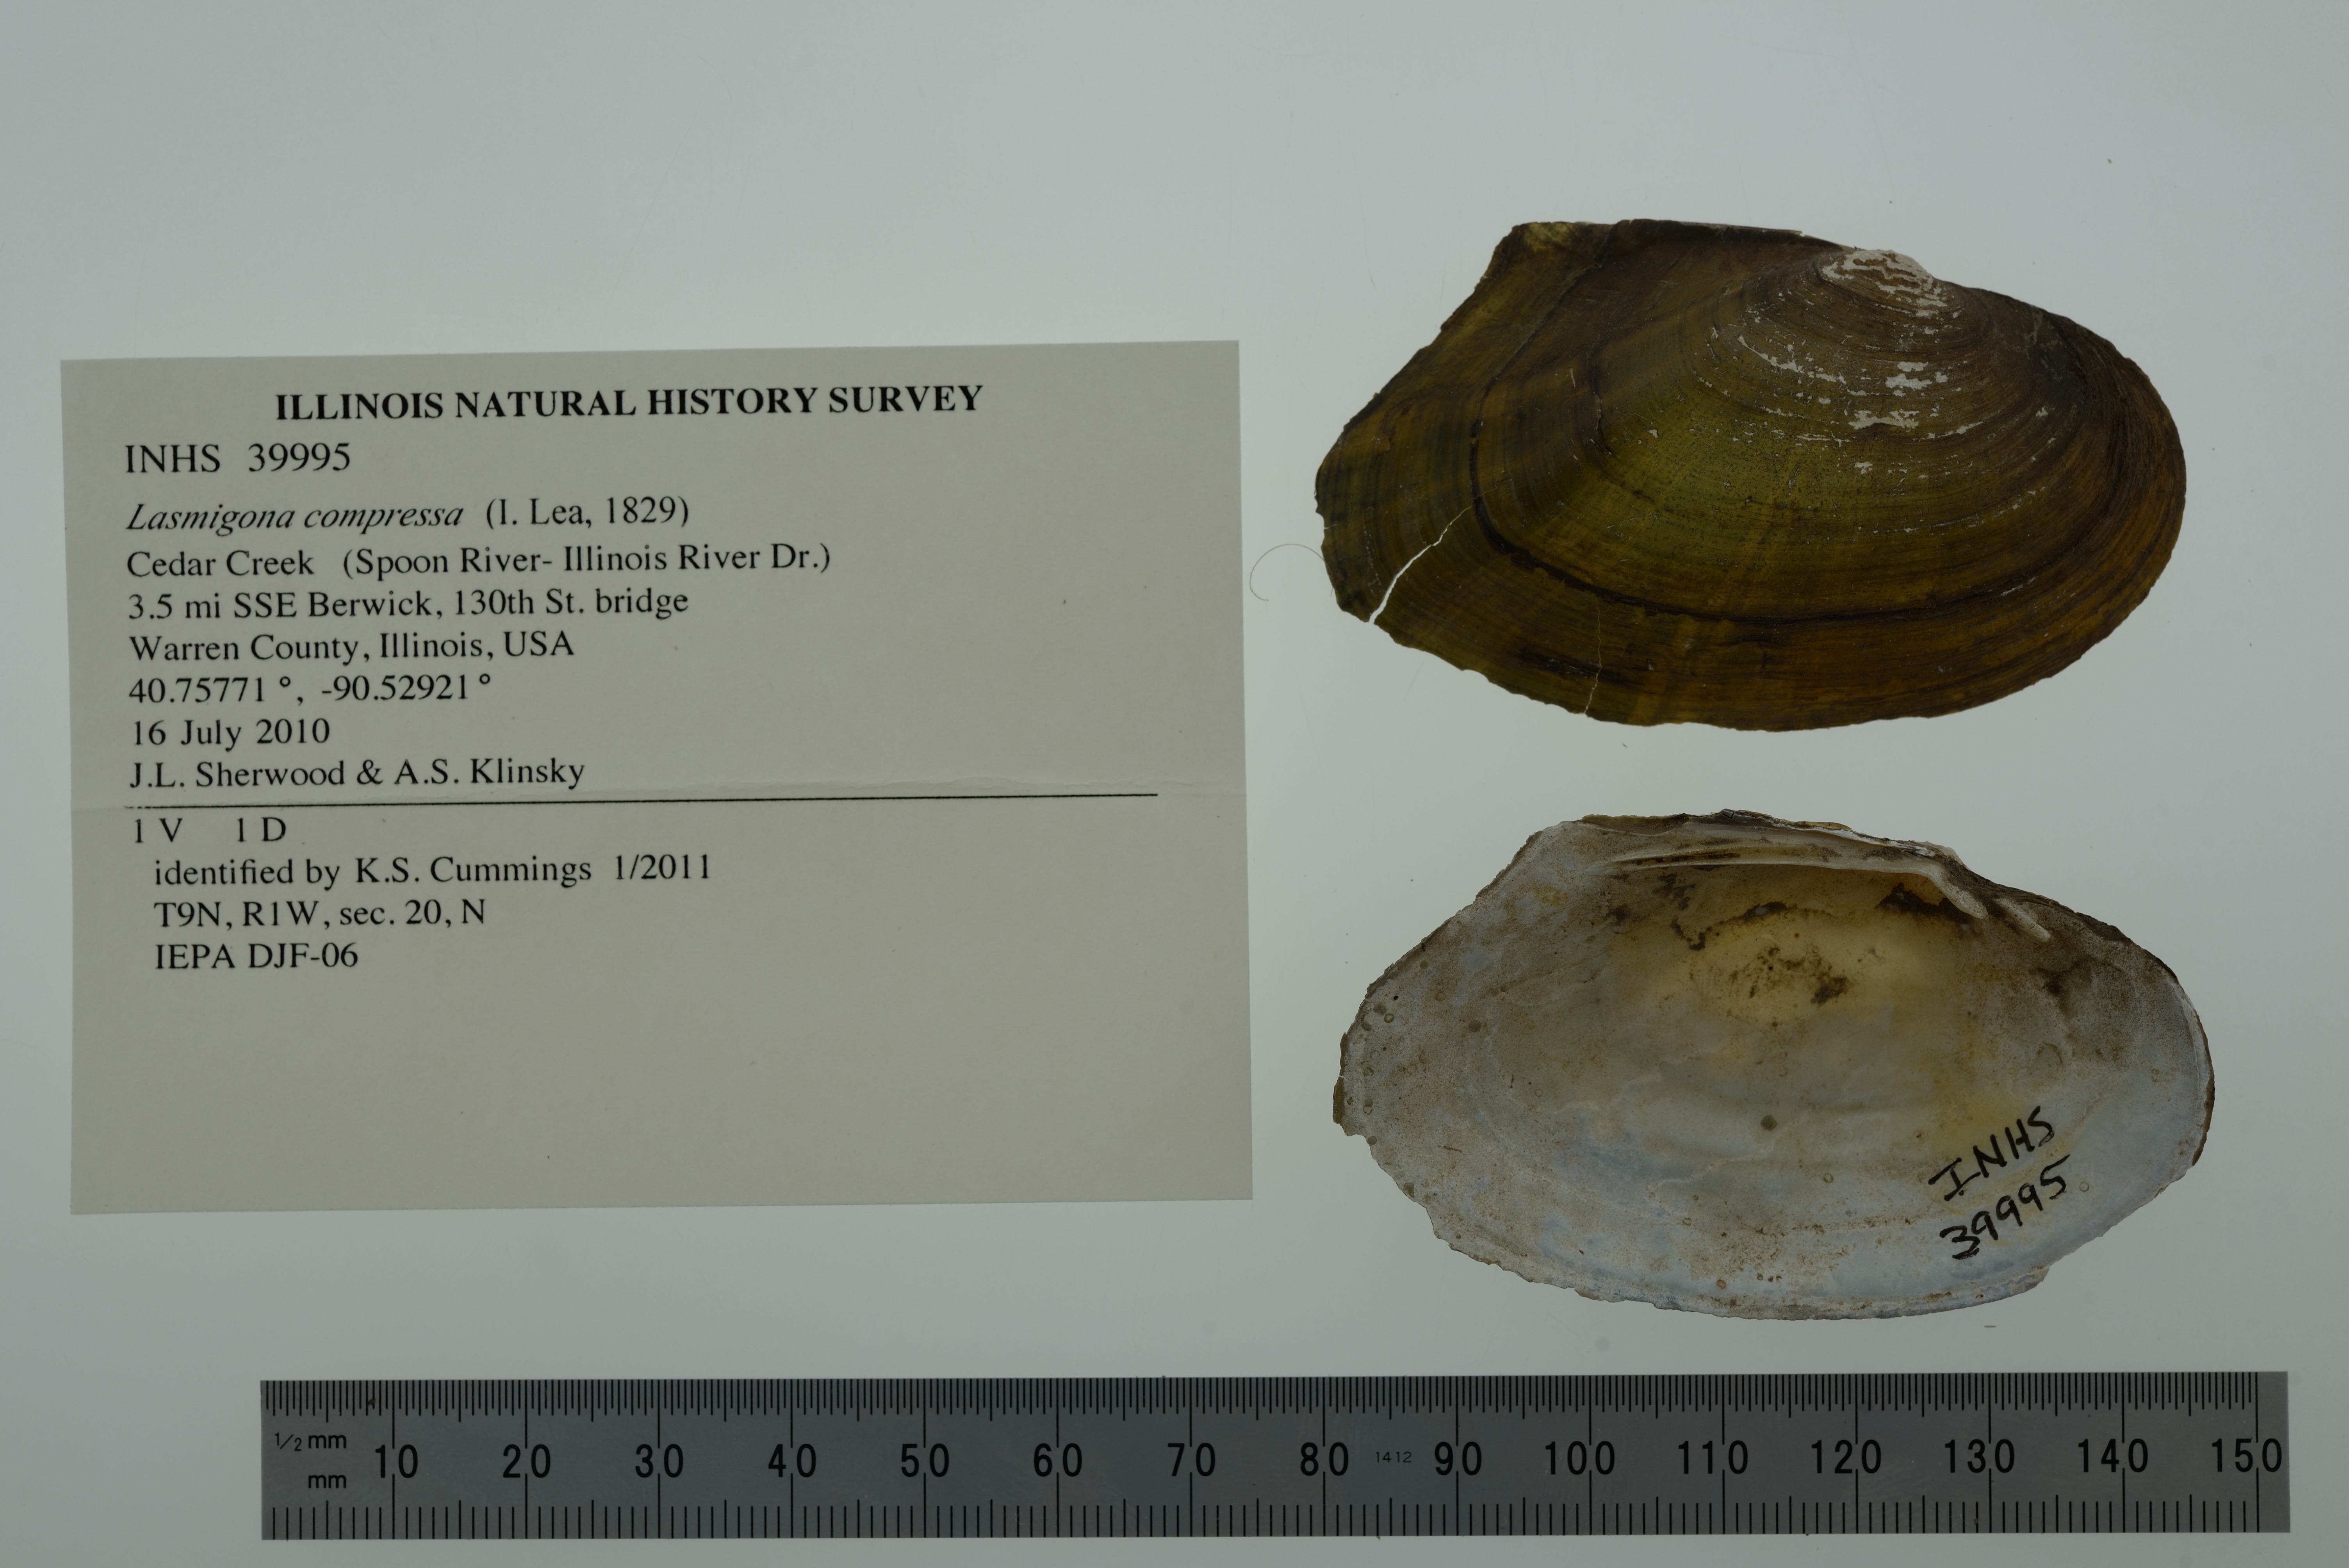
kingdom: Animalia
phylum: Mollusca
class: Bivalvia
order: Unionida
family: Unionidae
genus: Lasmigona
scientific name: Lasmigona compressa
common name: Creek heelsplitter
